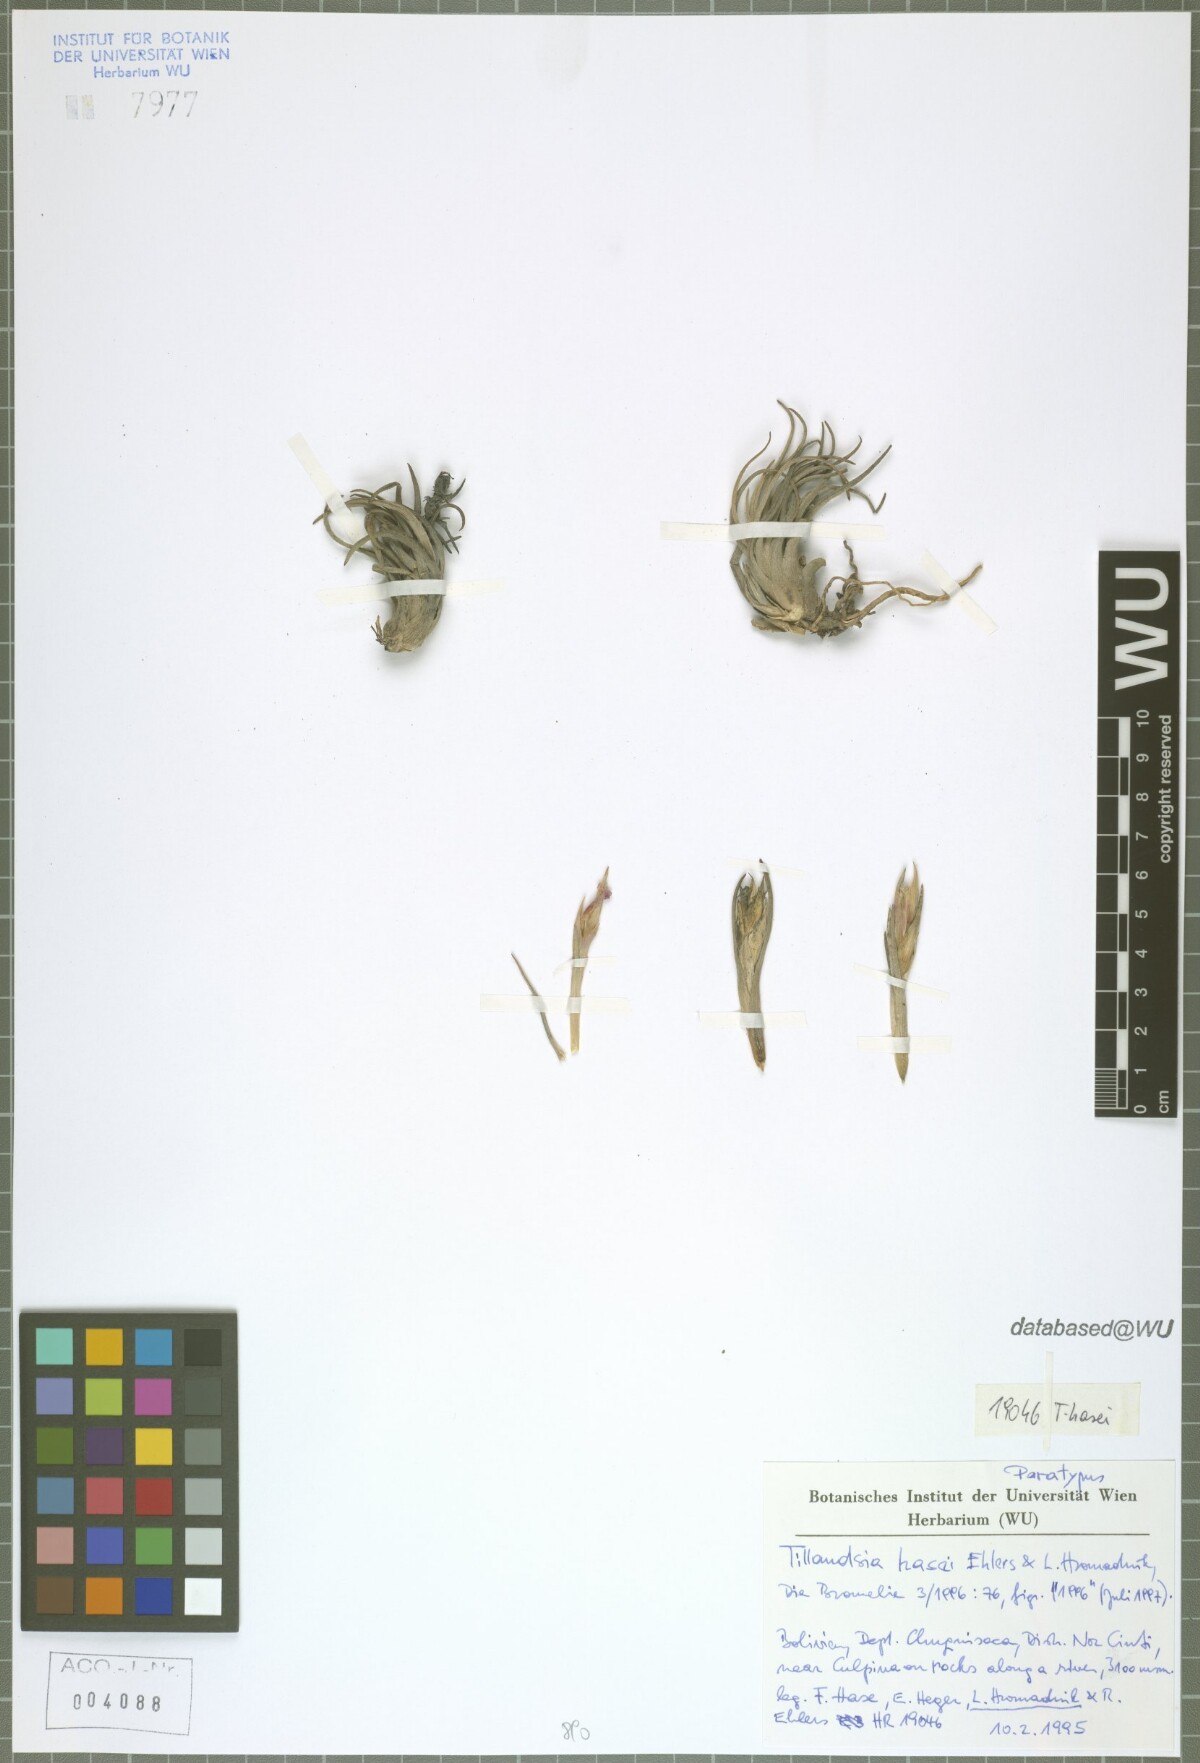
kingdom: Plantae
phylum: Tracheophyta
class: Liliopsida
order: Poales
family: Bromeliaceae
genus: Tillandsia
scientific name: Tillandsia hasei
